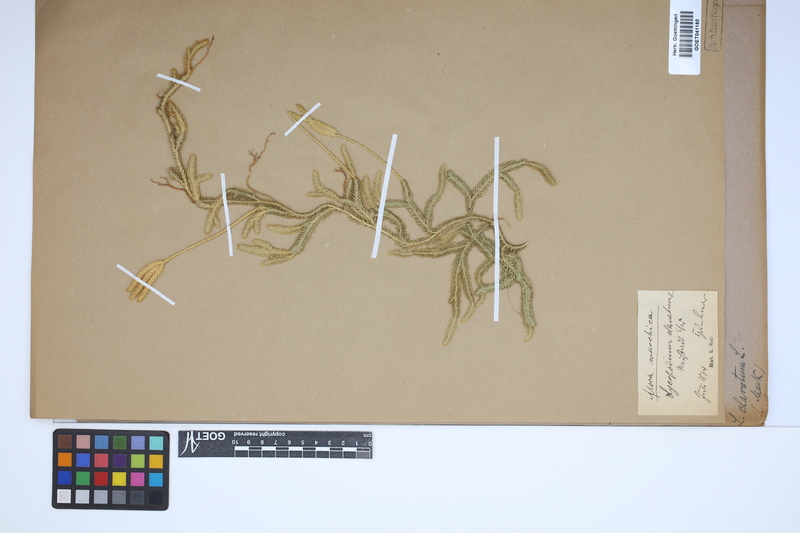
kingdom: Plantae
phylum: Tracheophyta
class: Lycopodiopsida
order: Lycopodiales
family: Lycopodiaceae
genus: Lycopodium
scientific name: Lycopodium clavatum
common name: Stag's-horn clubmoss
